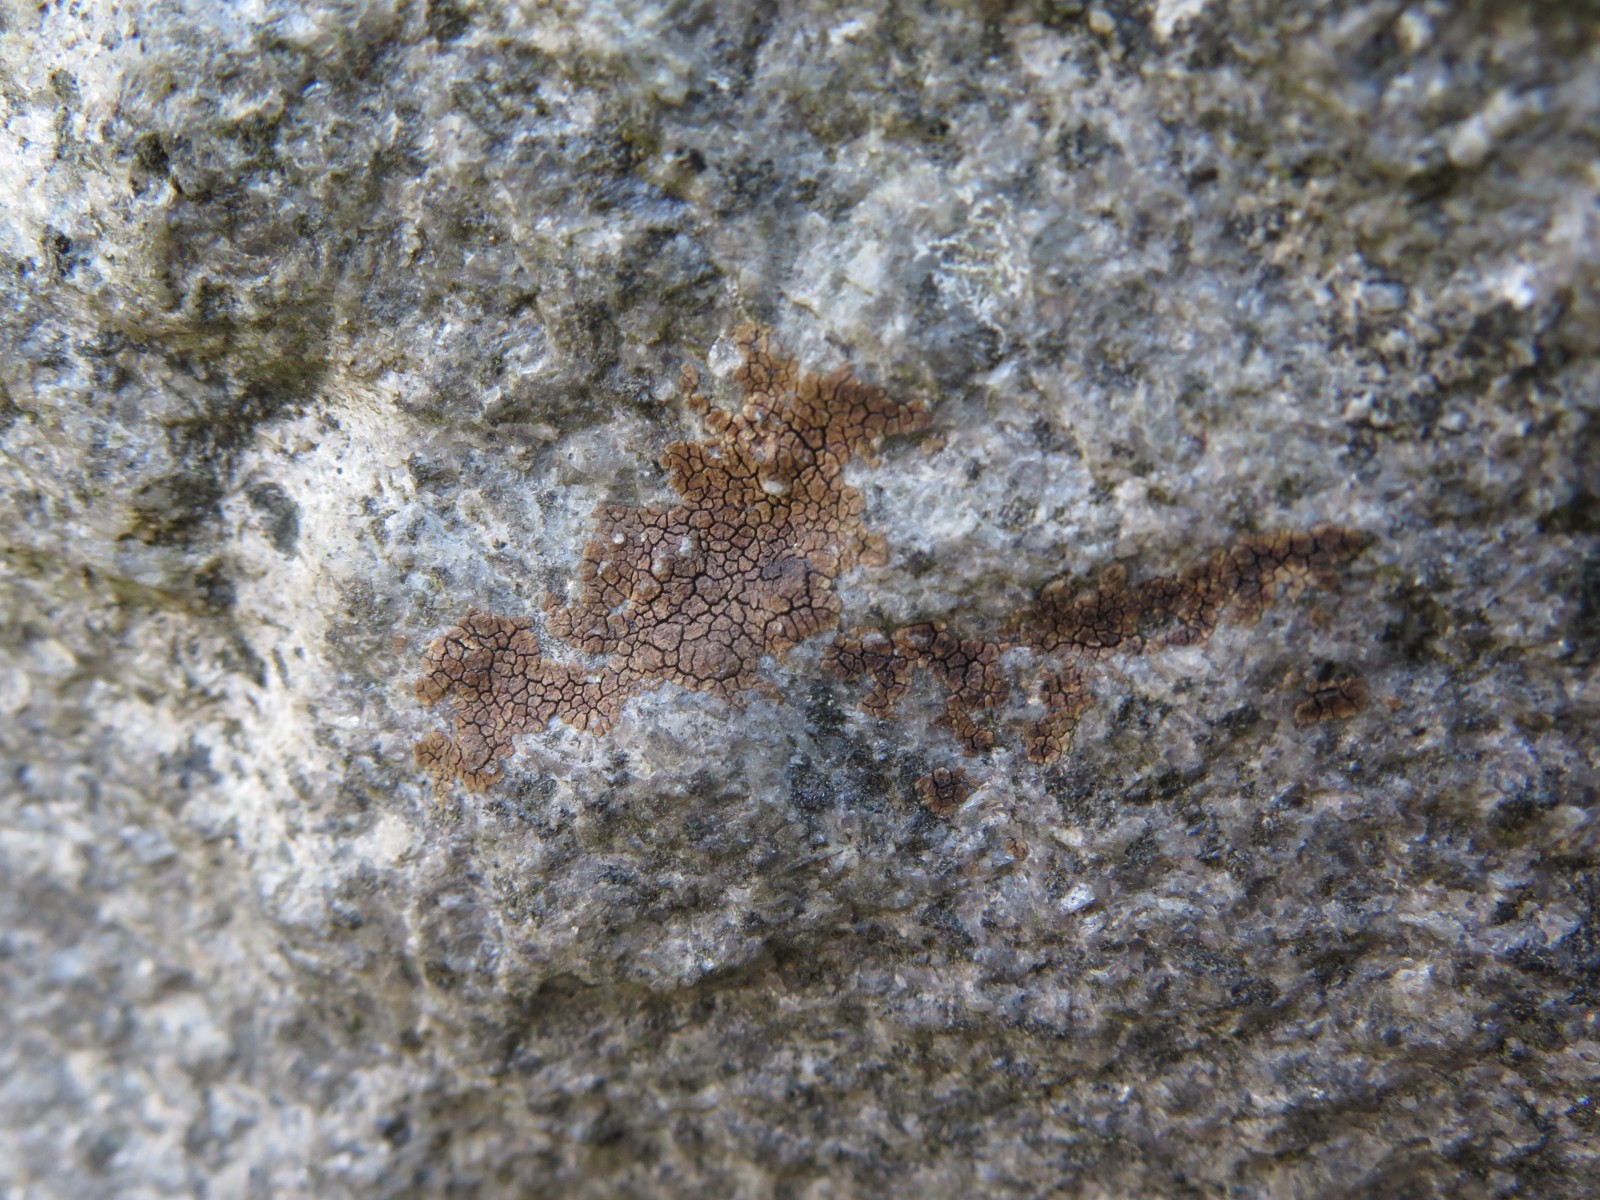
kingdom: Fungi
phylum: Ascomycota
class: Lecanoromycetes
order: Acarosporales
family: Acarosporaceae
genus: Acarospora
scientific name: Acarospora fuscata
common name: brun småsporelav
